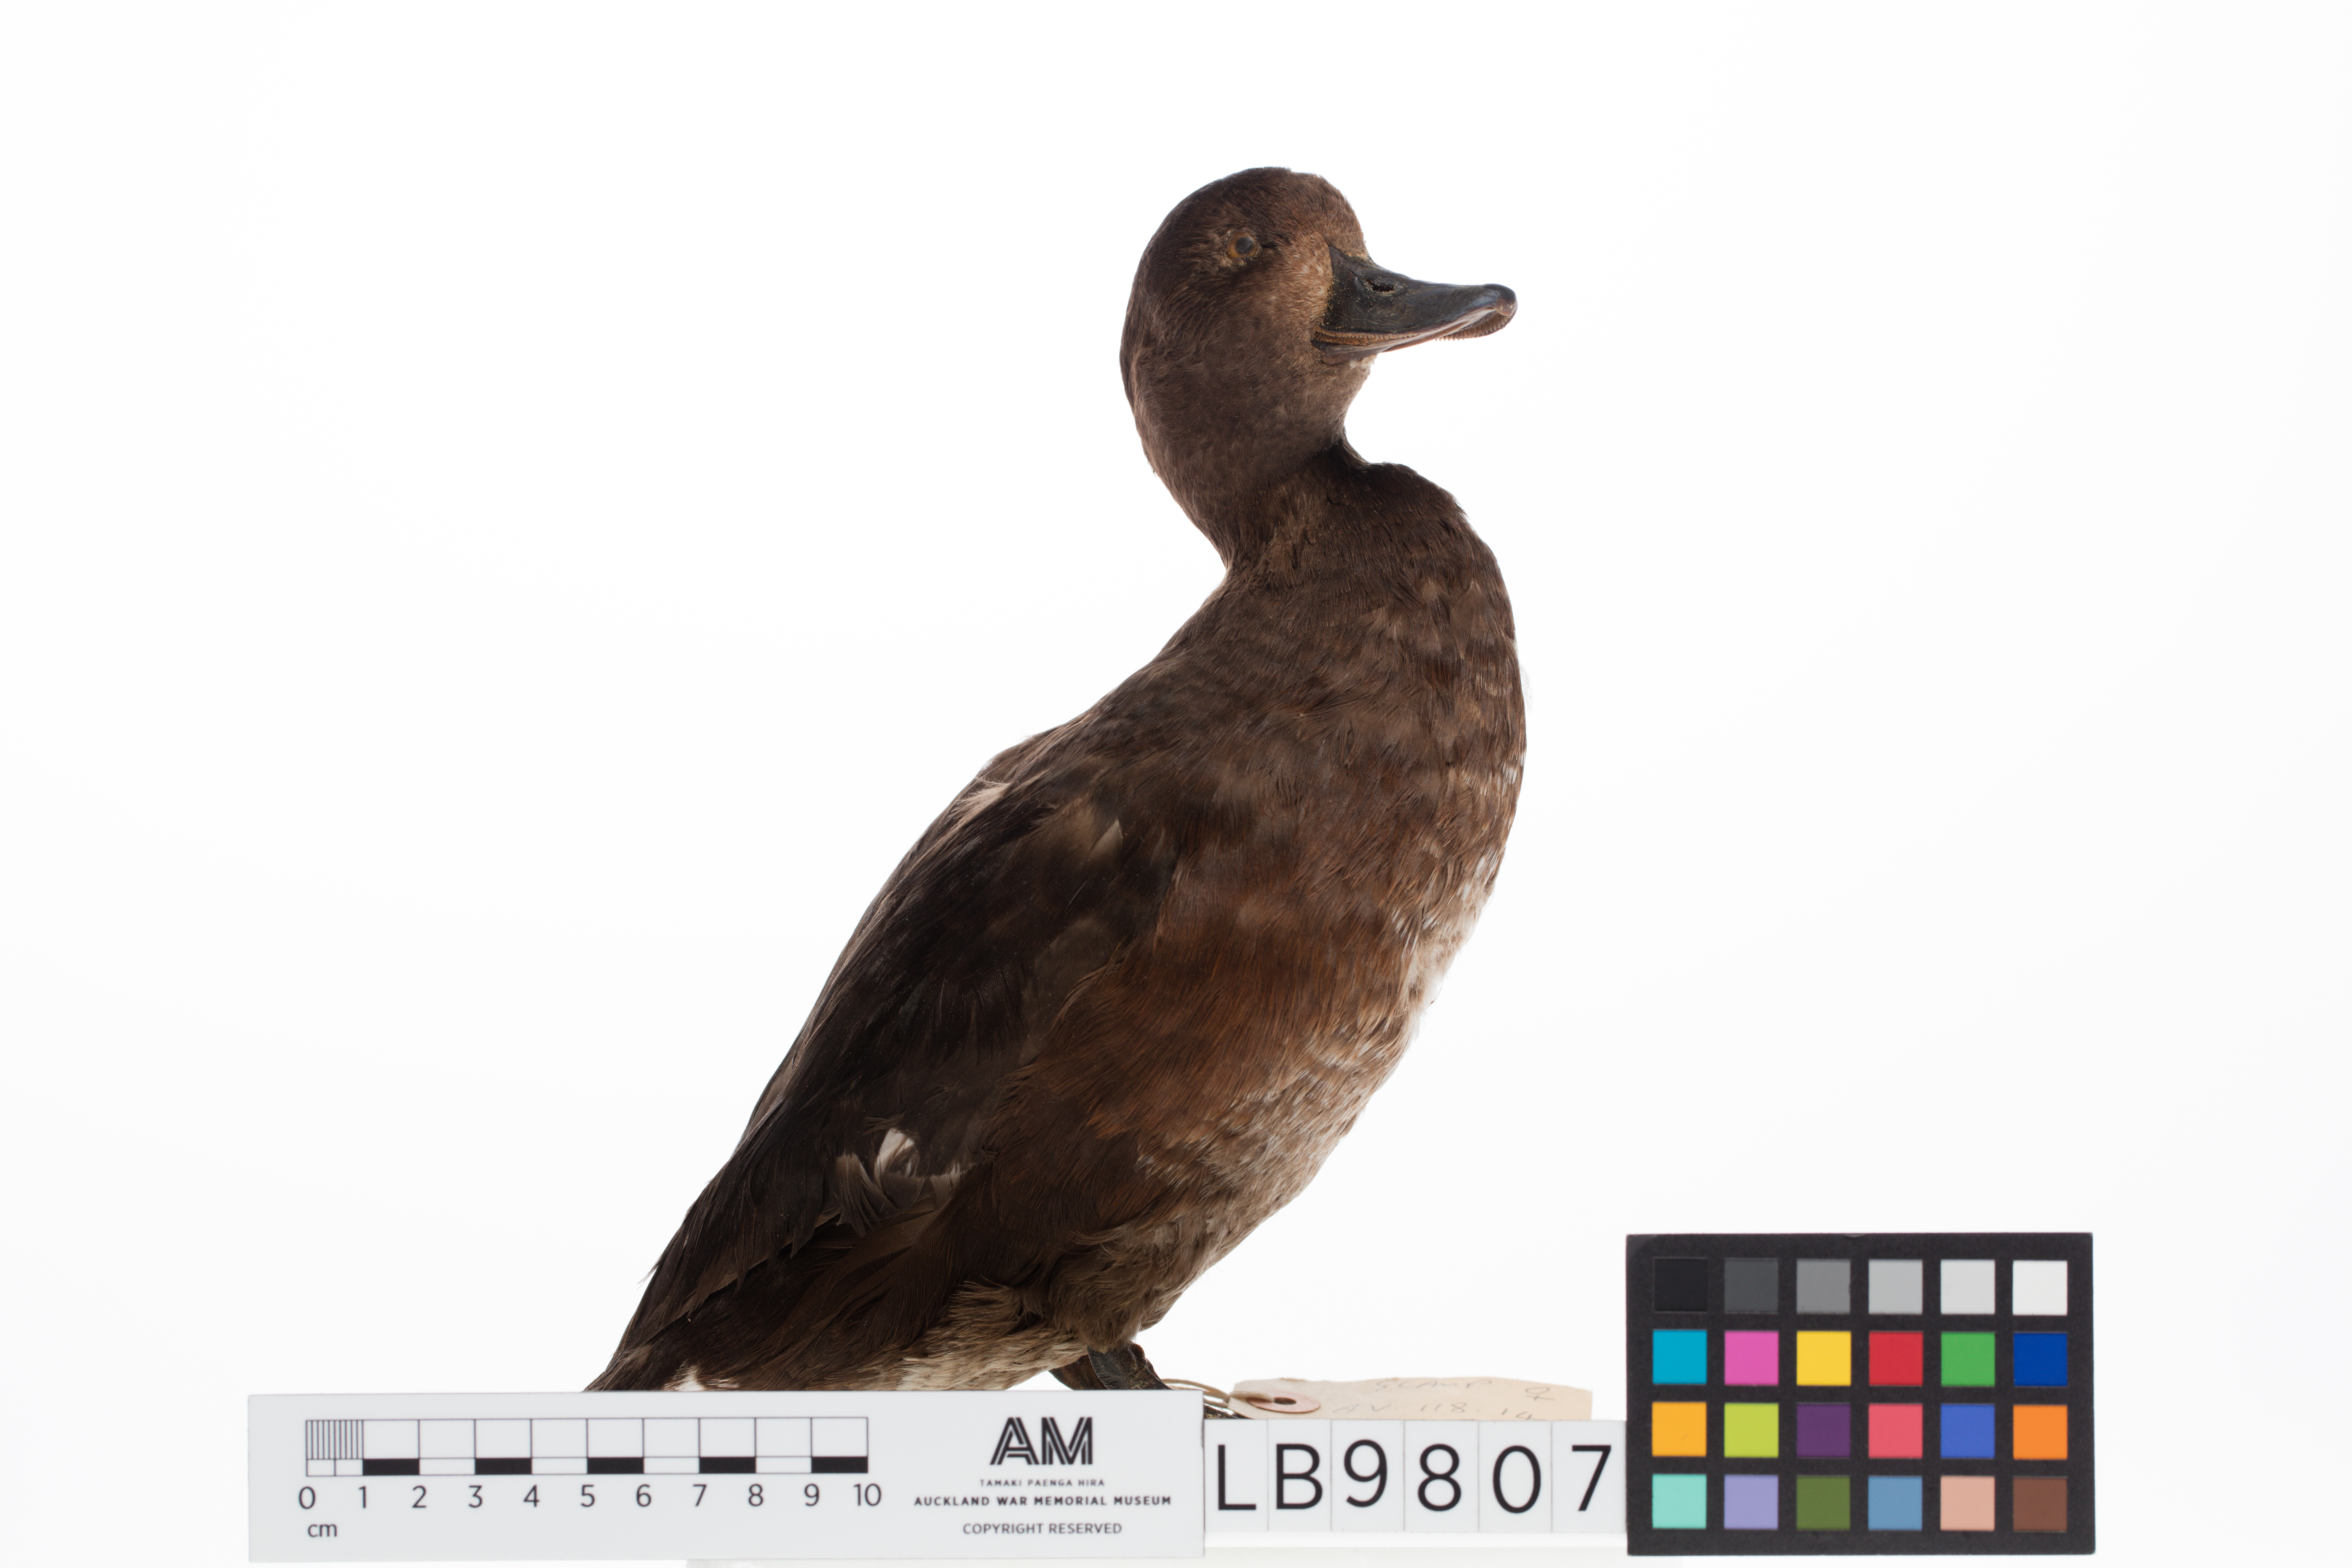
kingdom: Animalia
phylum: Chordata
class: Aves
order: Anseriformes
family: Anatidae
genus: Aythya
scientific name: Aythya novaeseelandiae
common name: New zealand scaup
